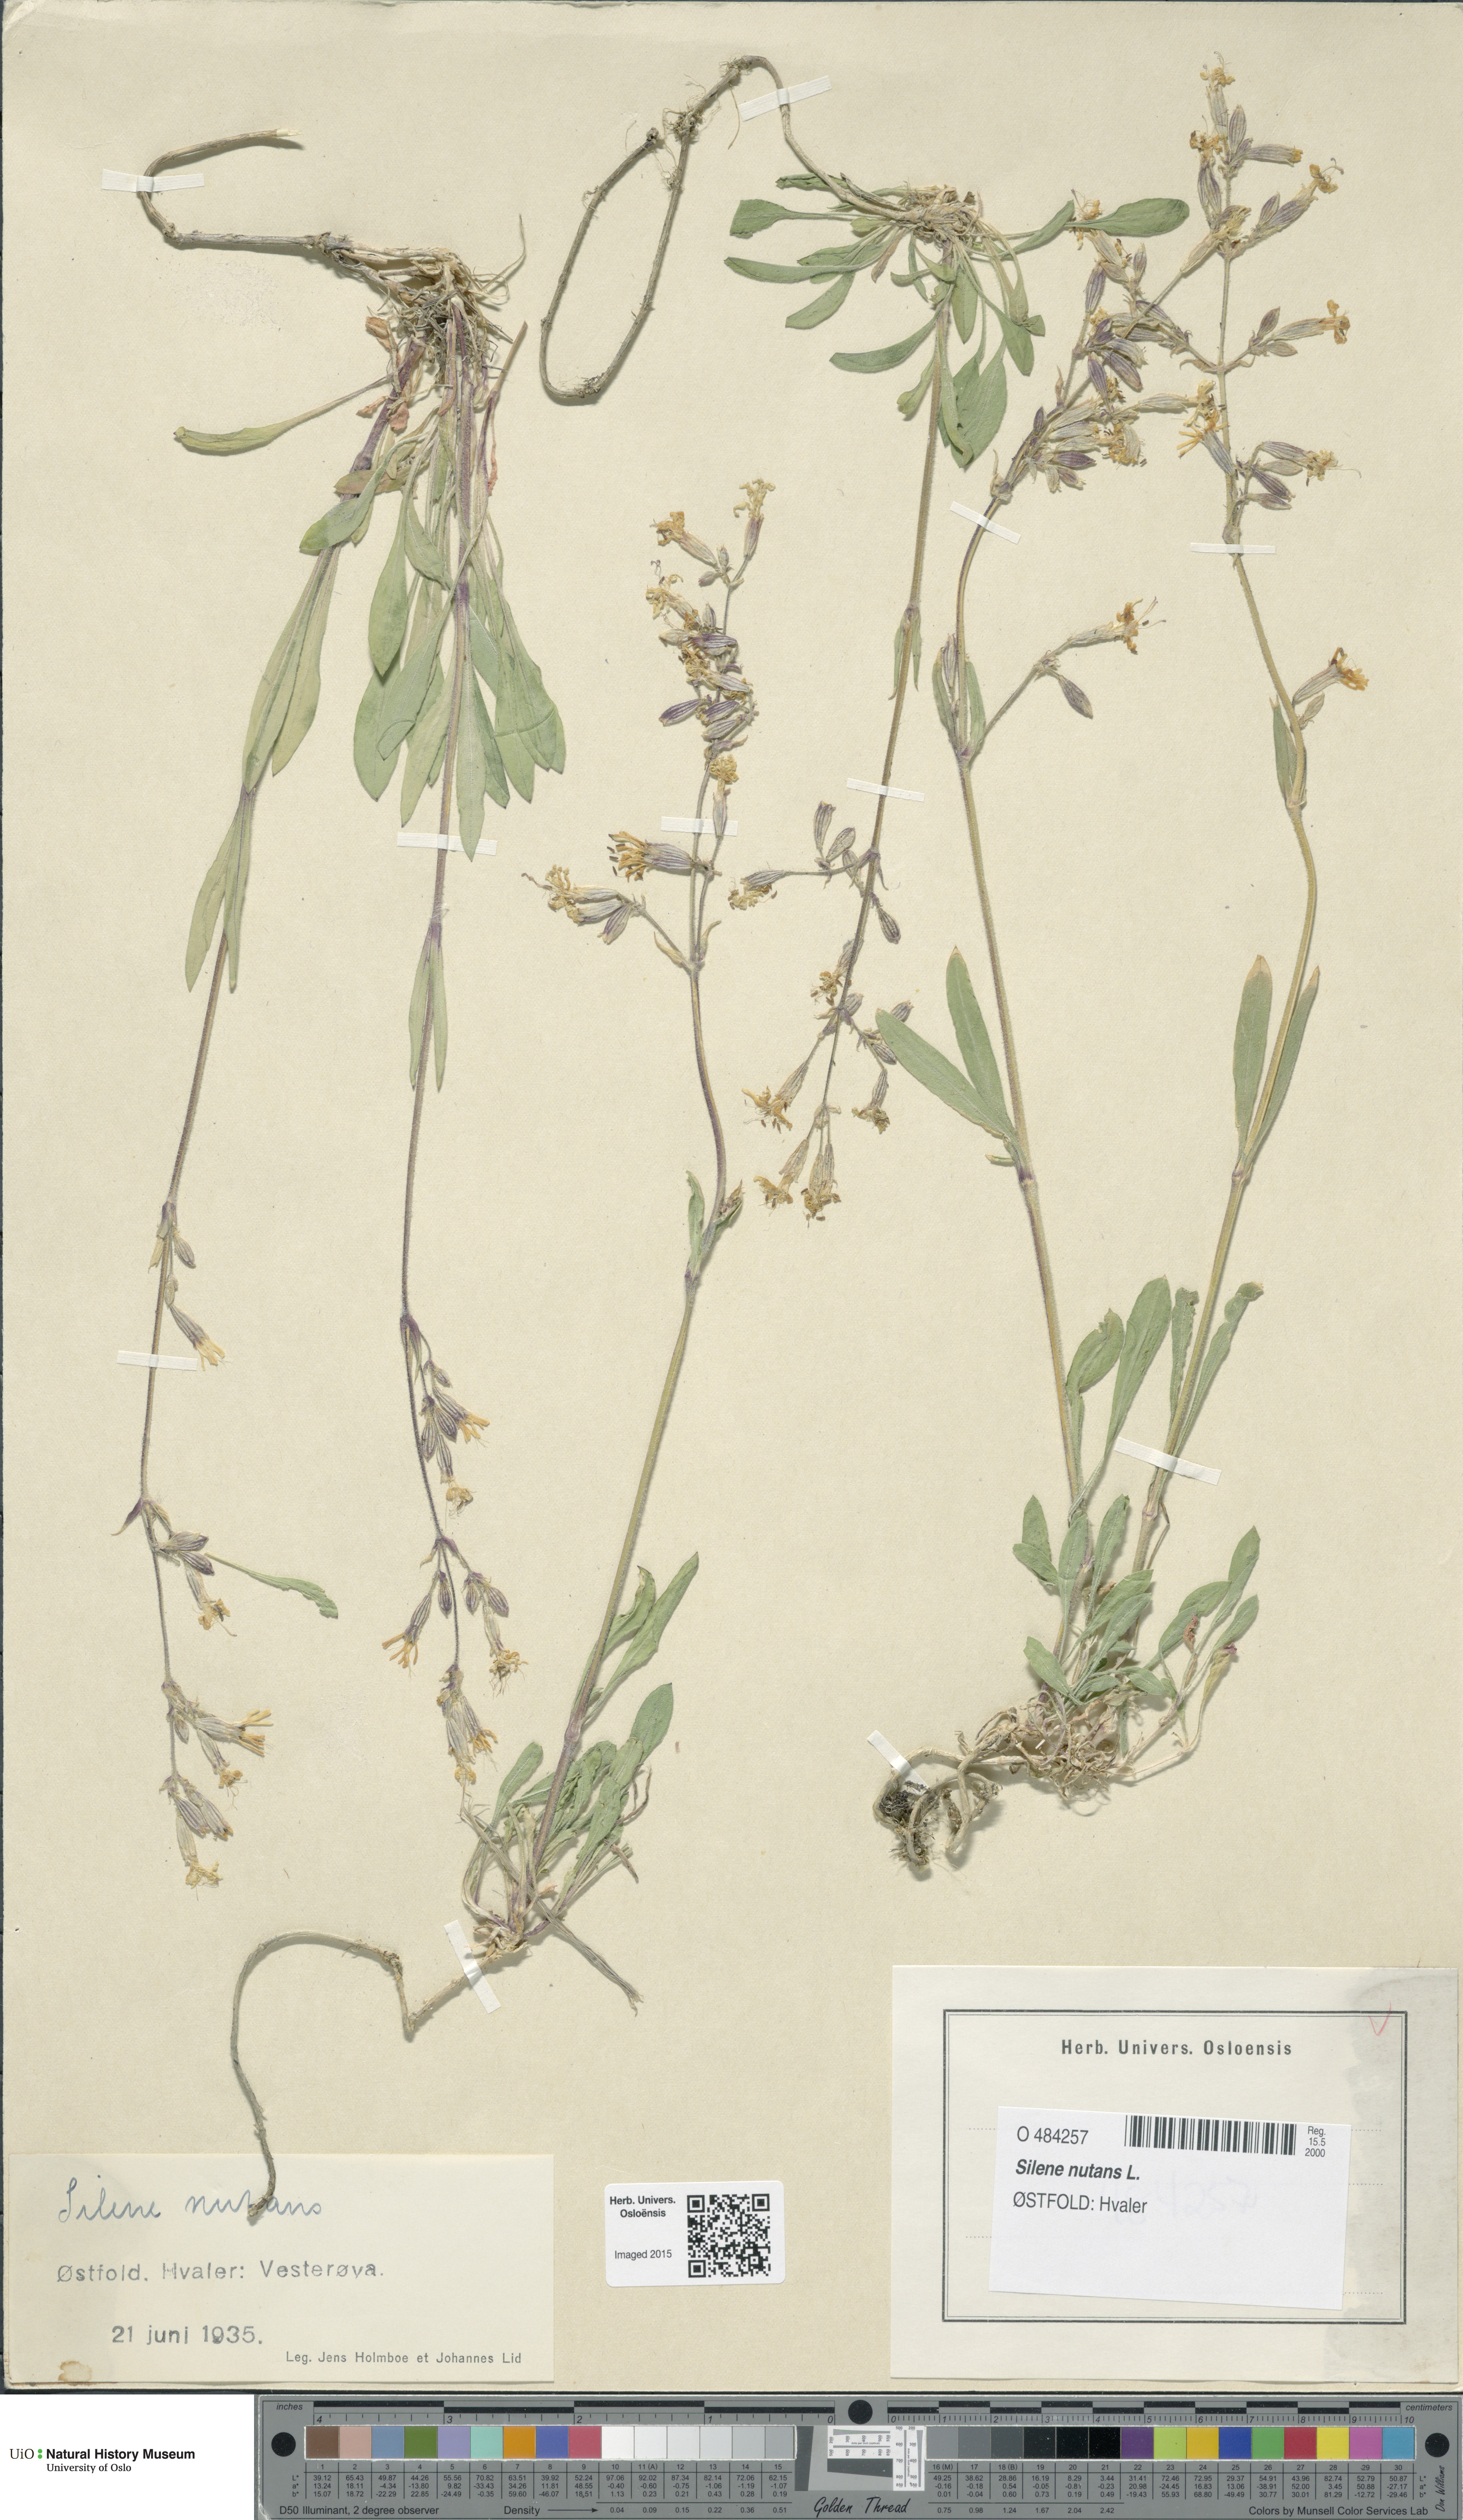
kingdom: Plantae
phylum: Tracheophyta
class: Magnoliopsida
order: Caryophyllales
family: Caryophyllaceae
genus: Silene
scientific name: Silene nutans
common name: Nottingham catchfly
